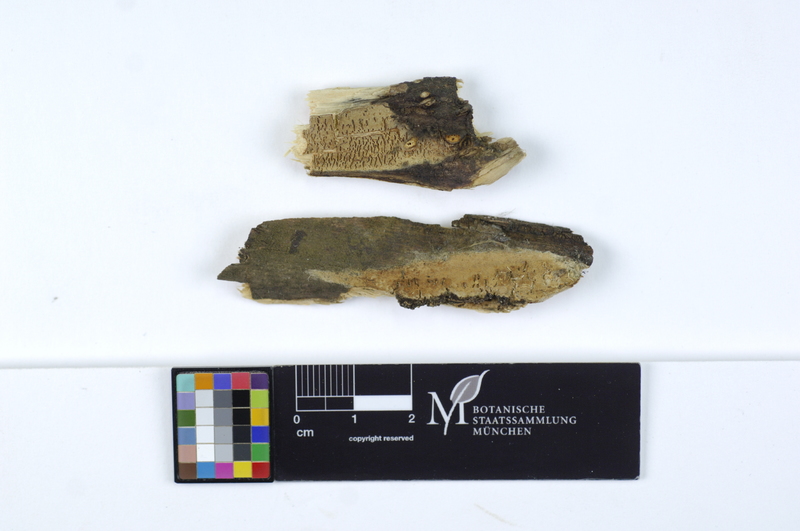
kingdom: Plantae
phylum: Tracheophyta
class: Magnoliopsida
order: Malpighiales
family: Salicaceae
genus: Salix
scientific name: Salix
